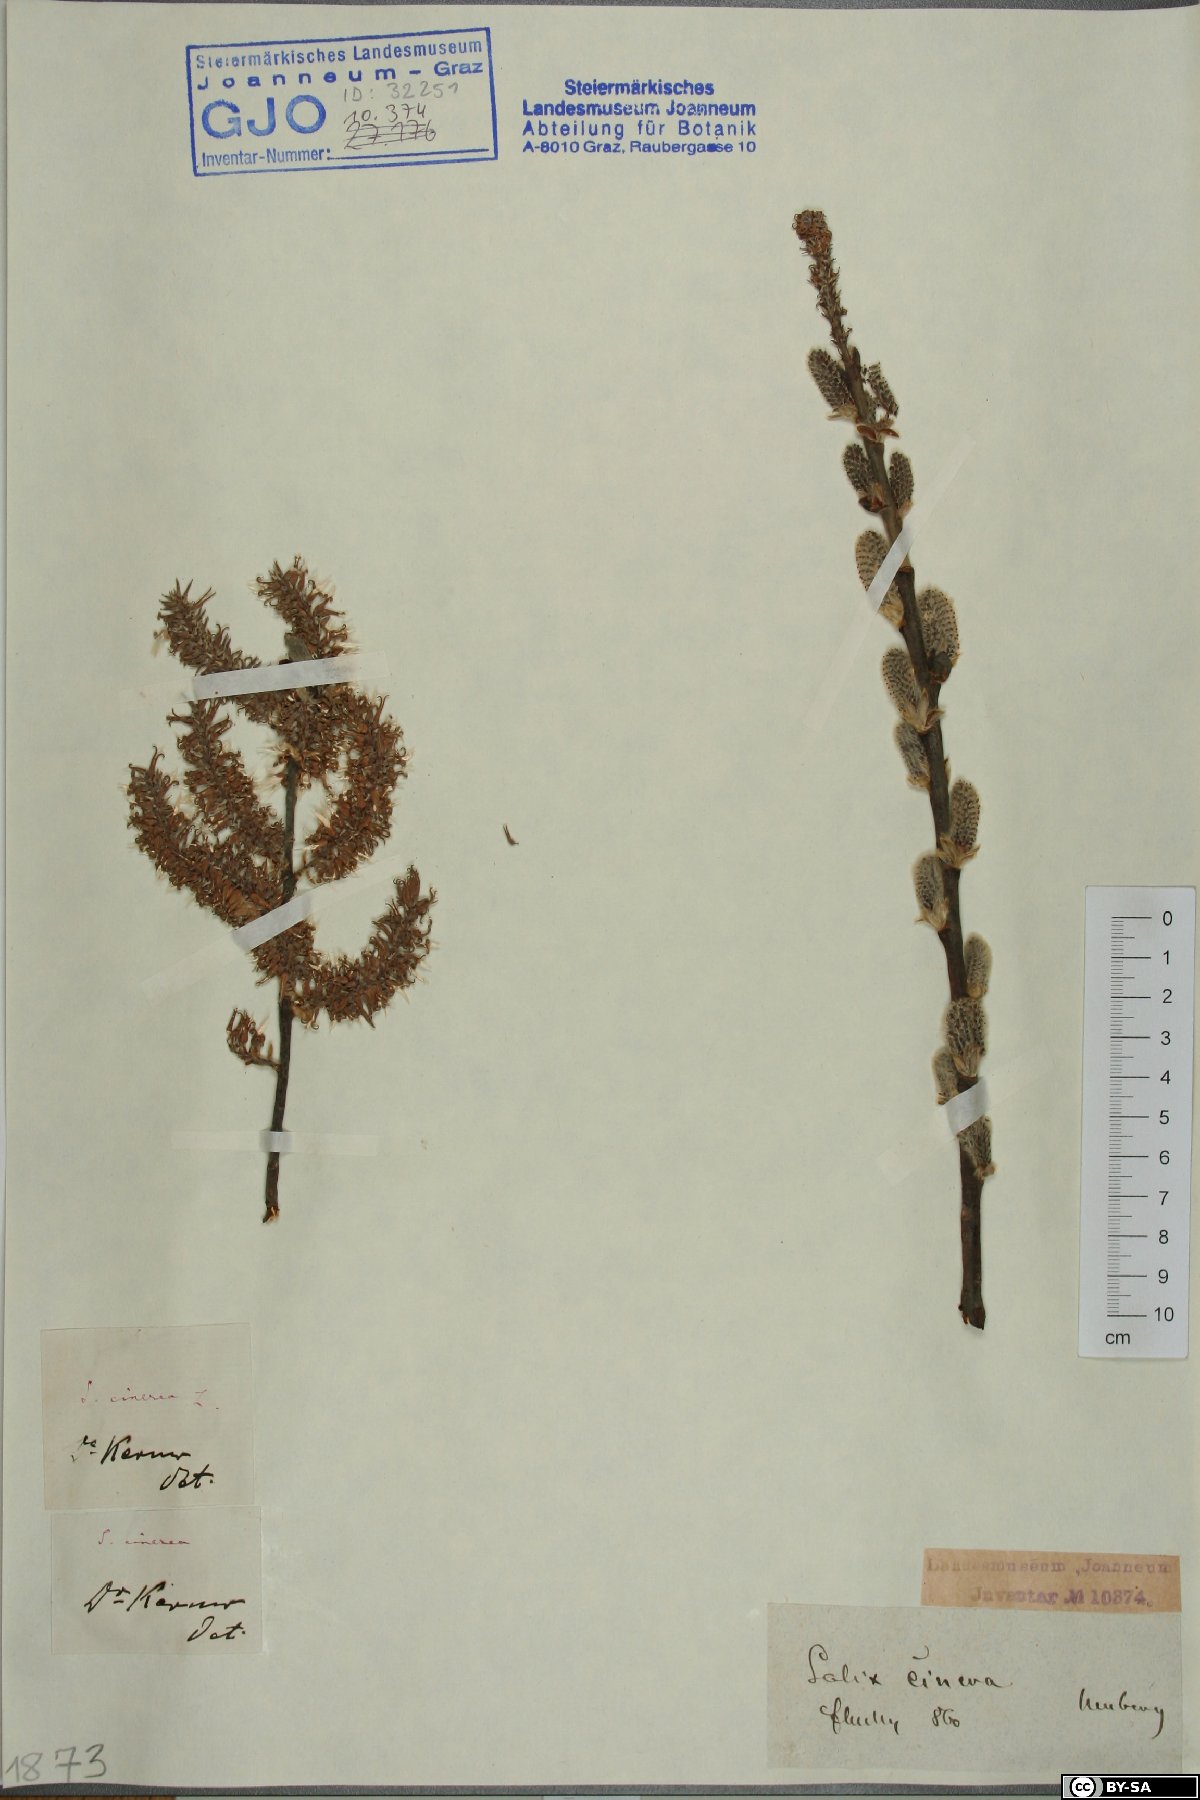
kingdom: Plantae
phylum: Tracheophyta
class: Magnoliopsida
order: Malpighiales
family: Salicaceae
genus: Salix
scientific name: Salix cinerea
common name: Common sallow
